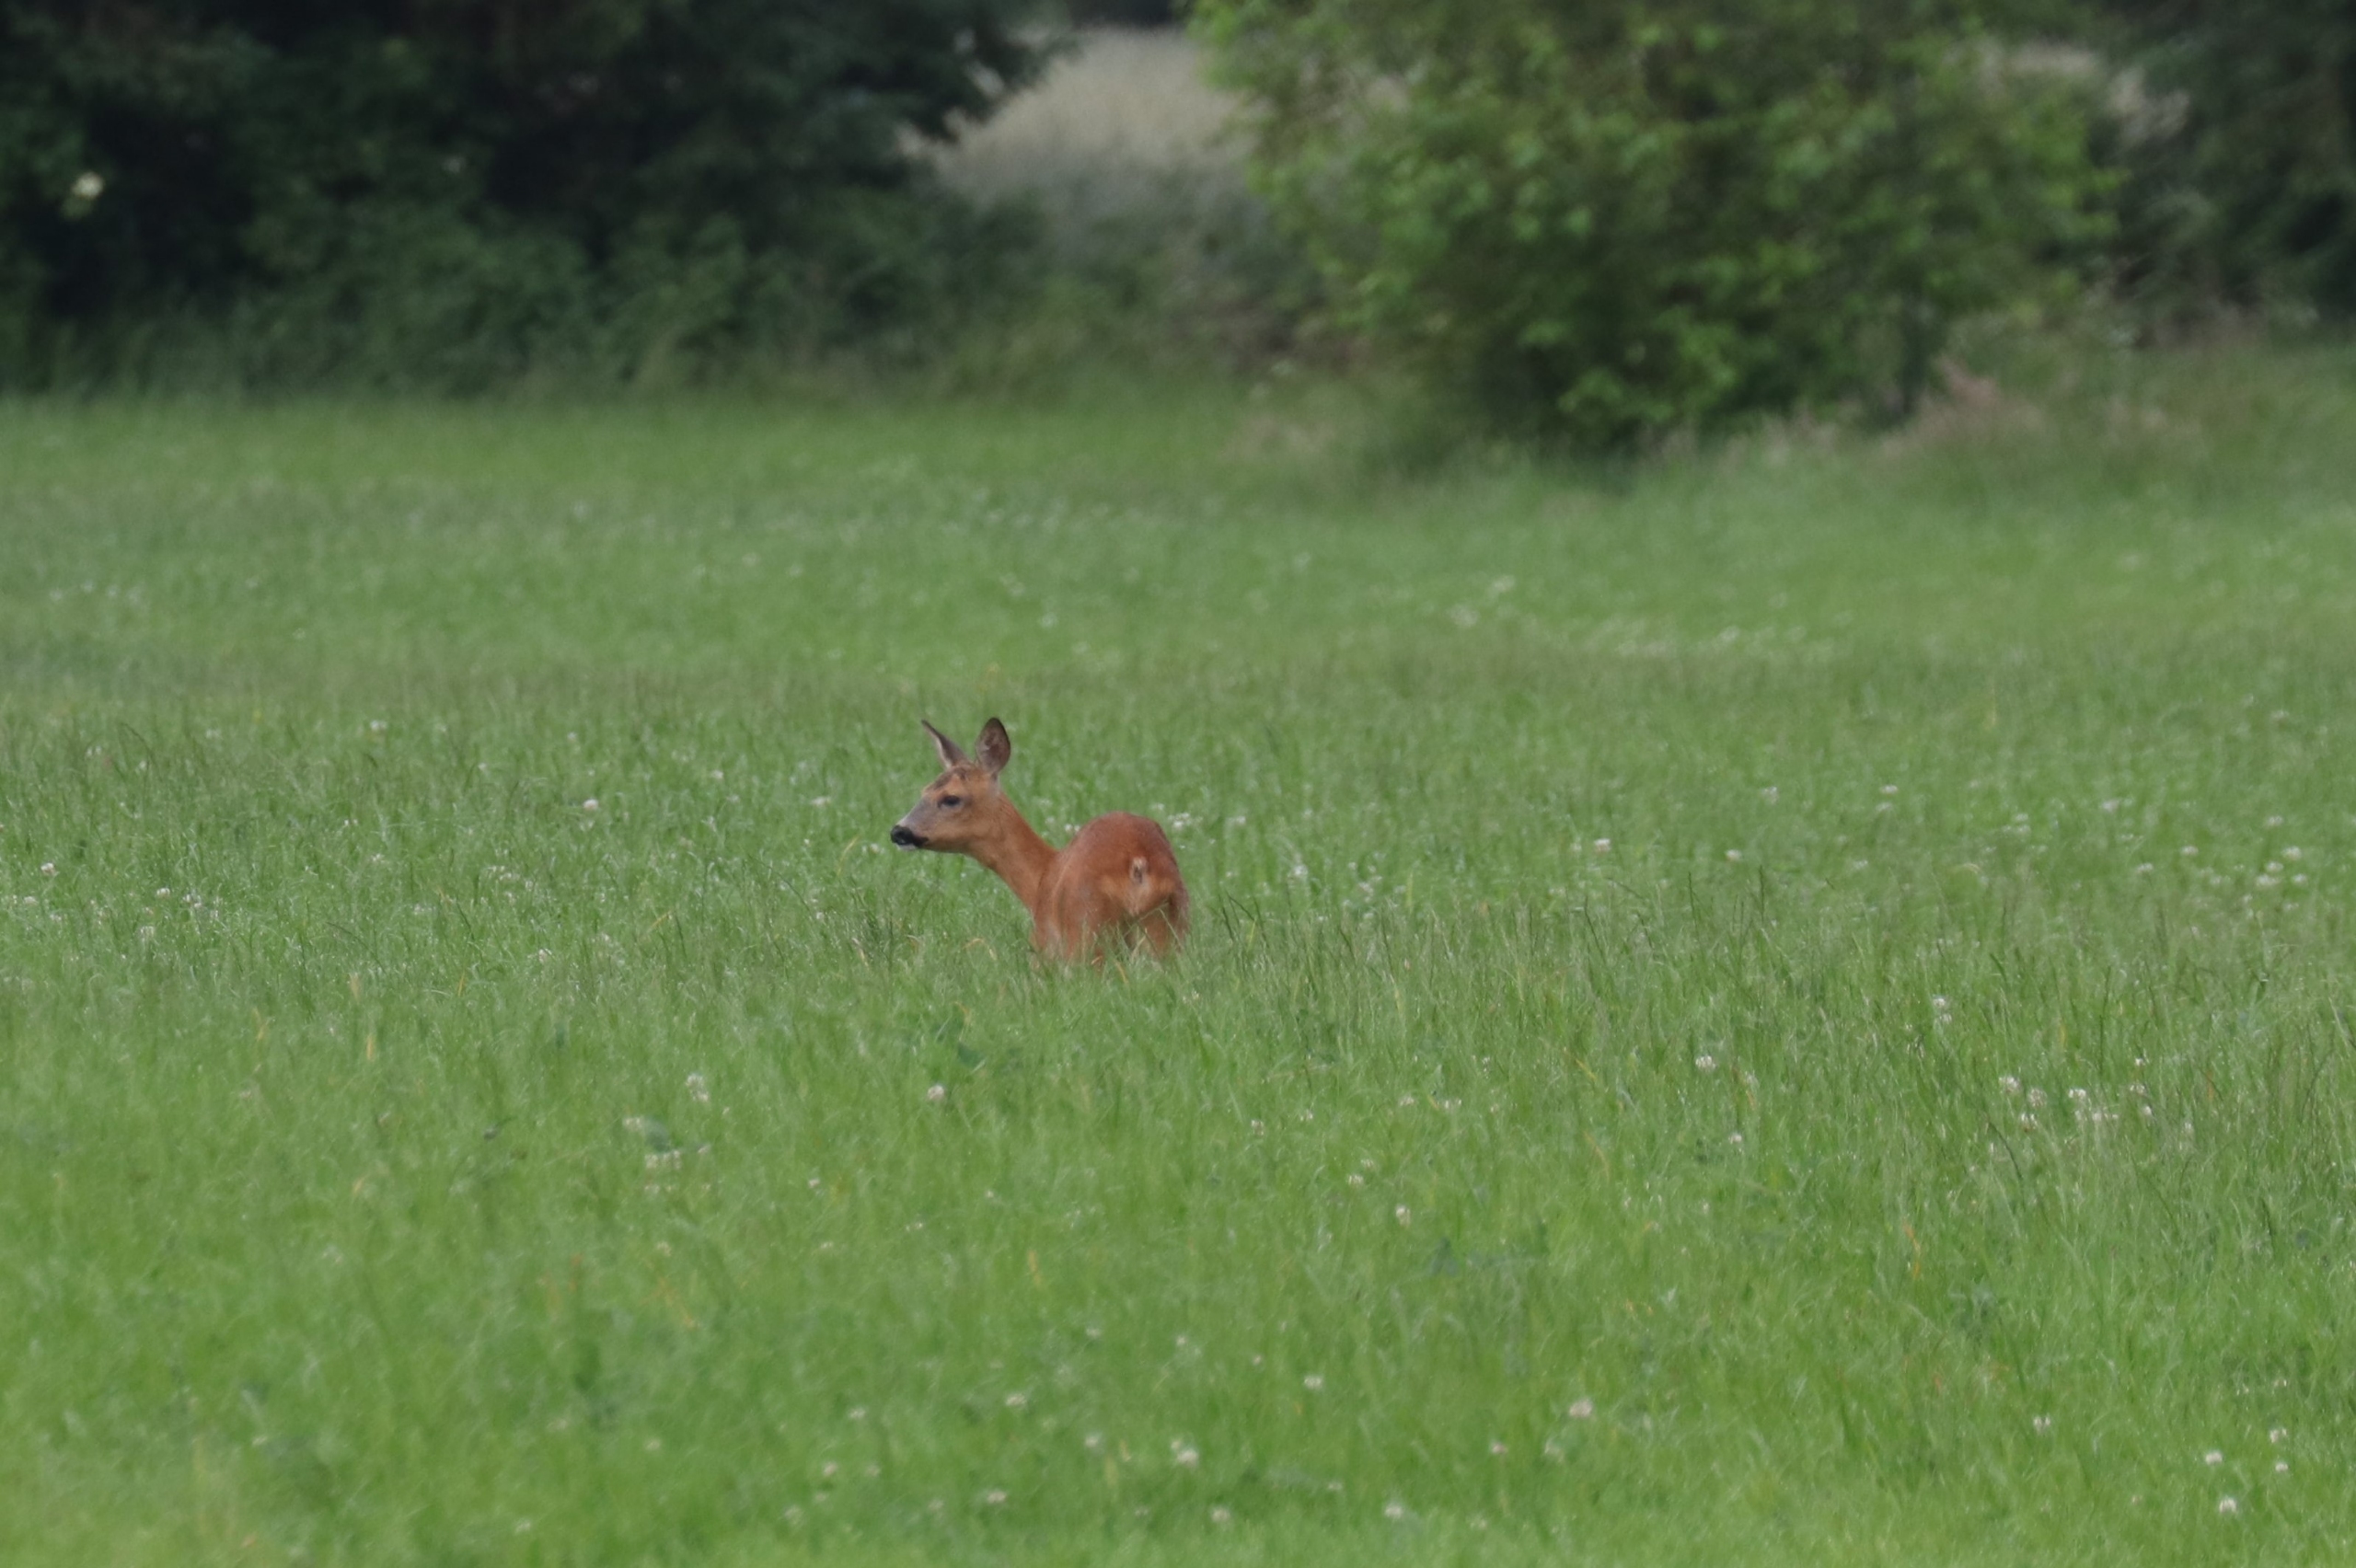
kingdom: Animalia
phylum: Chordata
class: Mammalia
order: Artiodactyla
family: Cervidae
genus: Capreolus
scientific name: Capreolus capreolus
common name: Rådyr
